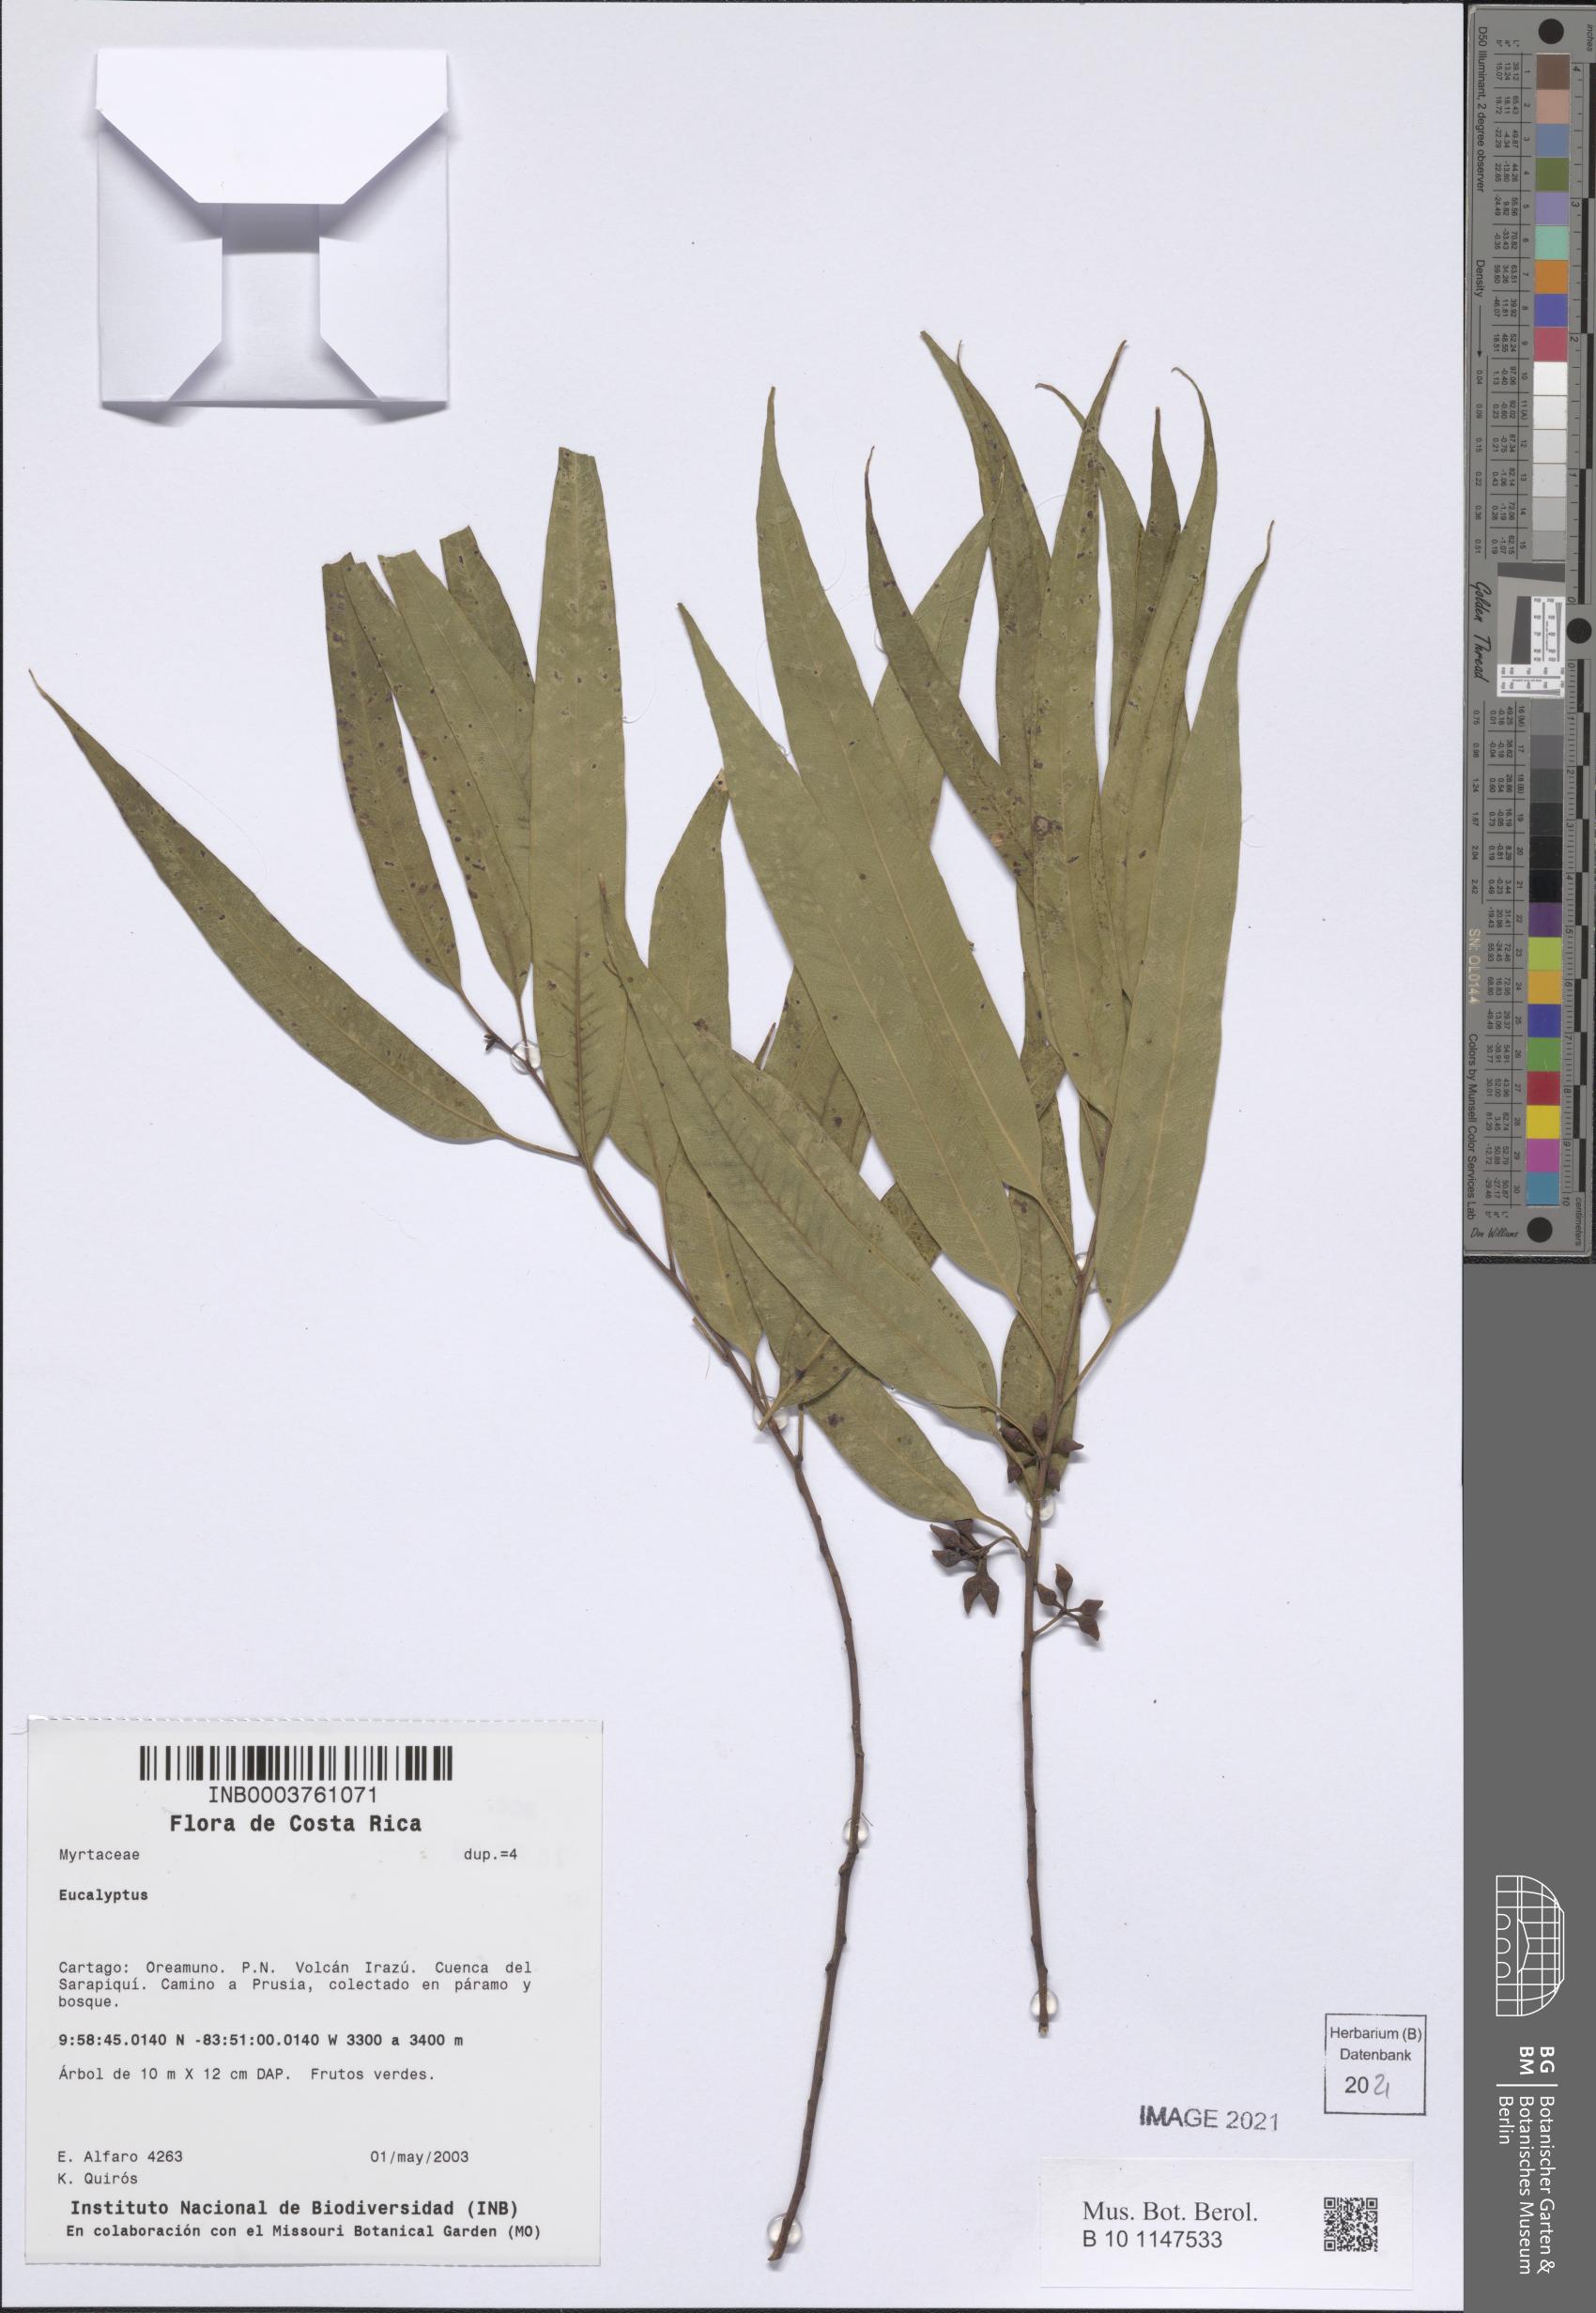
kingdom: Plantae
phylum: Tracheophyta
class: Magnoliopsida
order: Myrtales
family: Myrtaceae
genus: Eucalyptus
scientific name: Eucalyptus
